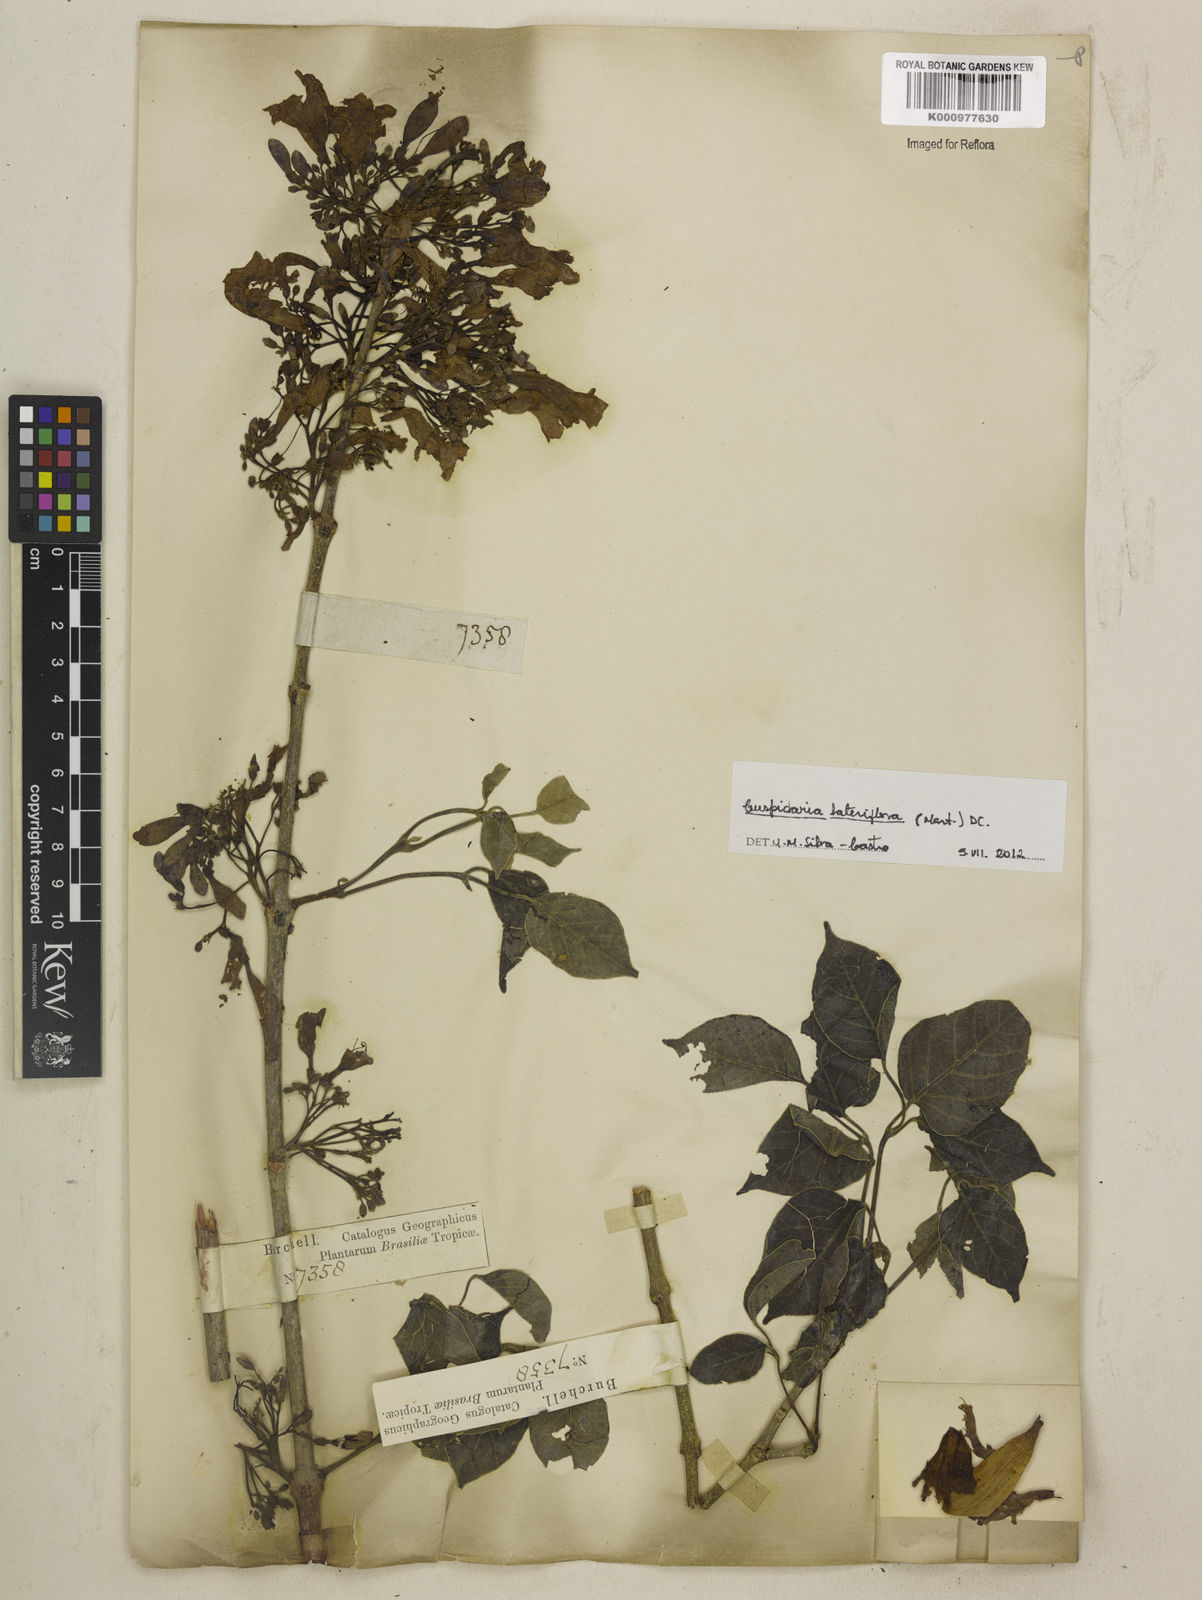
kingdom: Plantae
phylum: Tracheophyta
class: Magnoliopsida
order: Lamiales
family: Bignoniaceae
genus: Cuspidaria
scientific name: Cuspidaria lateriflora
